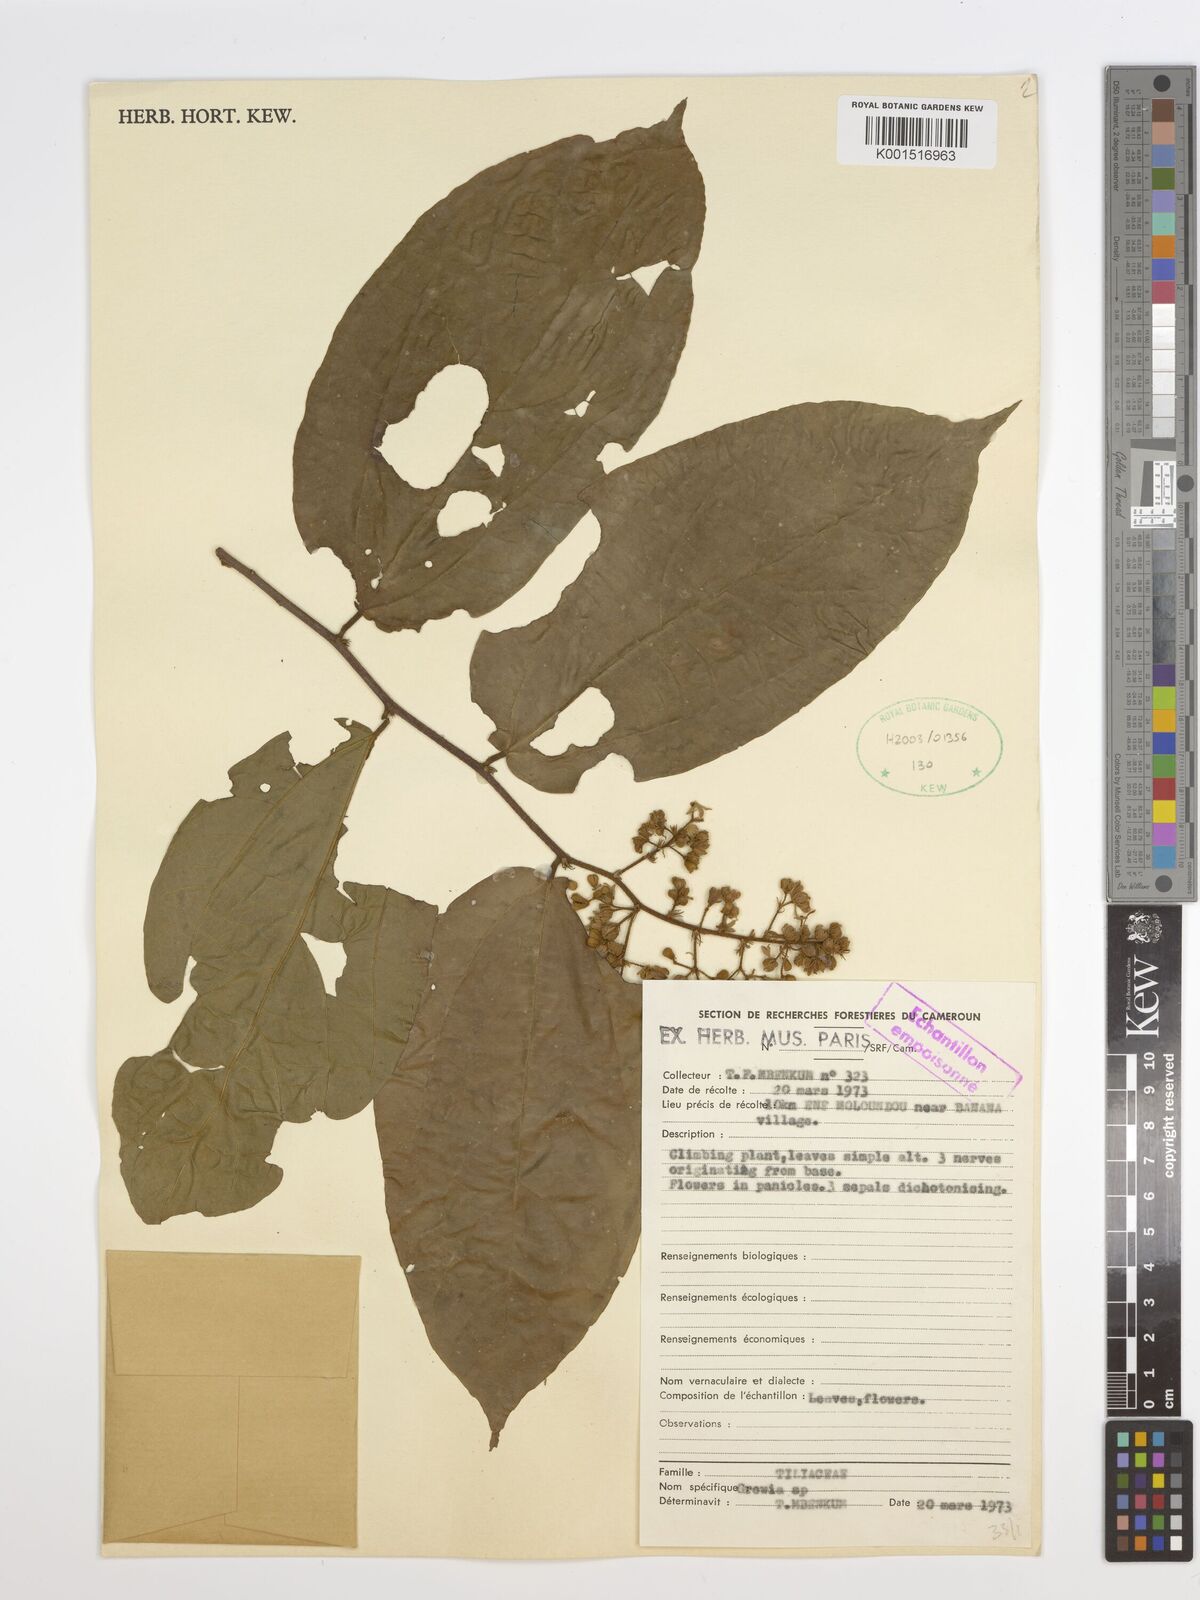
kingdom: Plantae
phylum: Tracheophyta
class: Magnoliopsida
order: Malvales
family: Malvaceae
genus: Grewia
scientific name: Grewia
